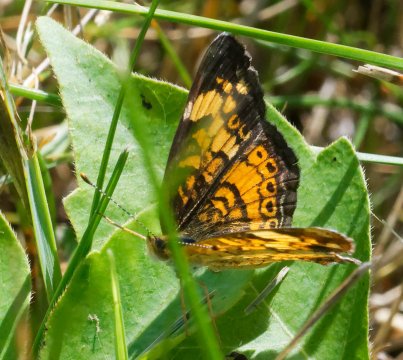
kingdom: Animalia
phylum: Arthropoda
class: Insecta
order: Lepidoptera
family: Nymphalidae
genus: Phyciodes
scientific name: Phyciodes tharos
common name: Pearl Crescent
